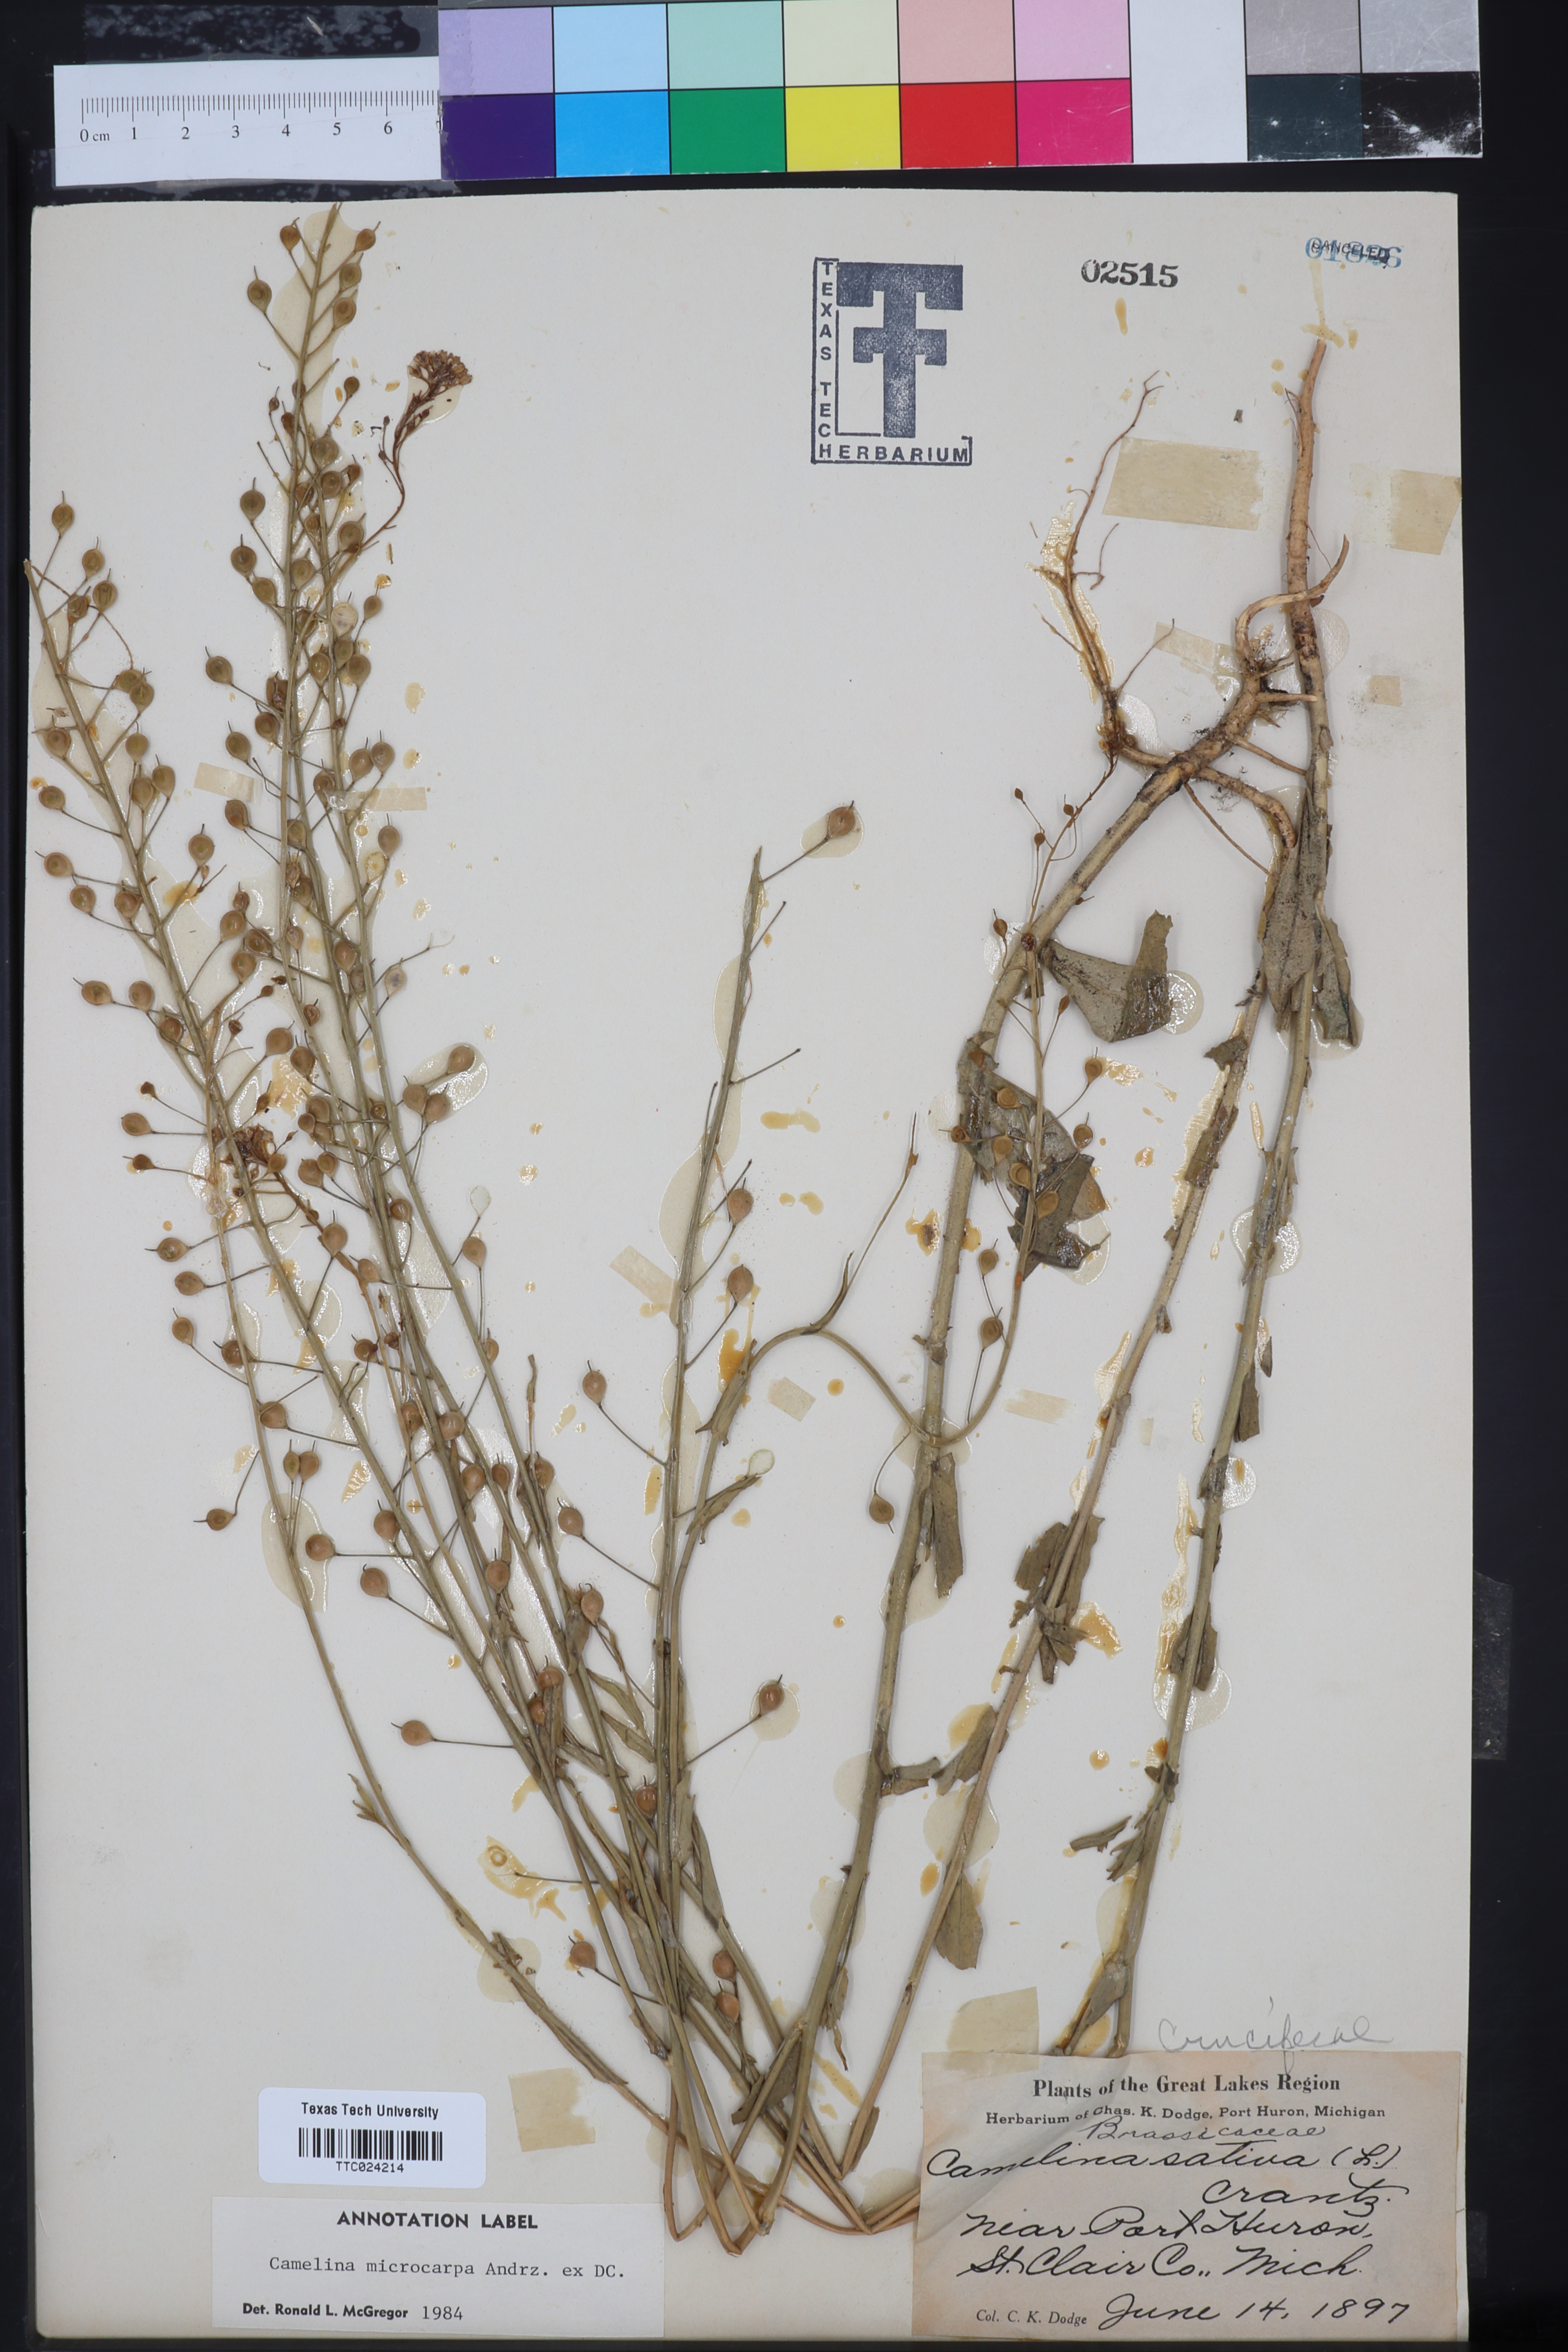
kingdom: Plantae
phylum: Tracheophyta
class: Magnoliopsida
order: Brassicales
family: Brassicaceae
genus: Camelina
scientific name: Camelina microcarpa
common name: Lesser gold-of-pleasure
